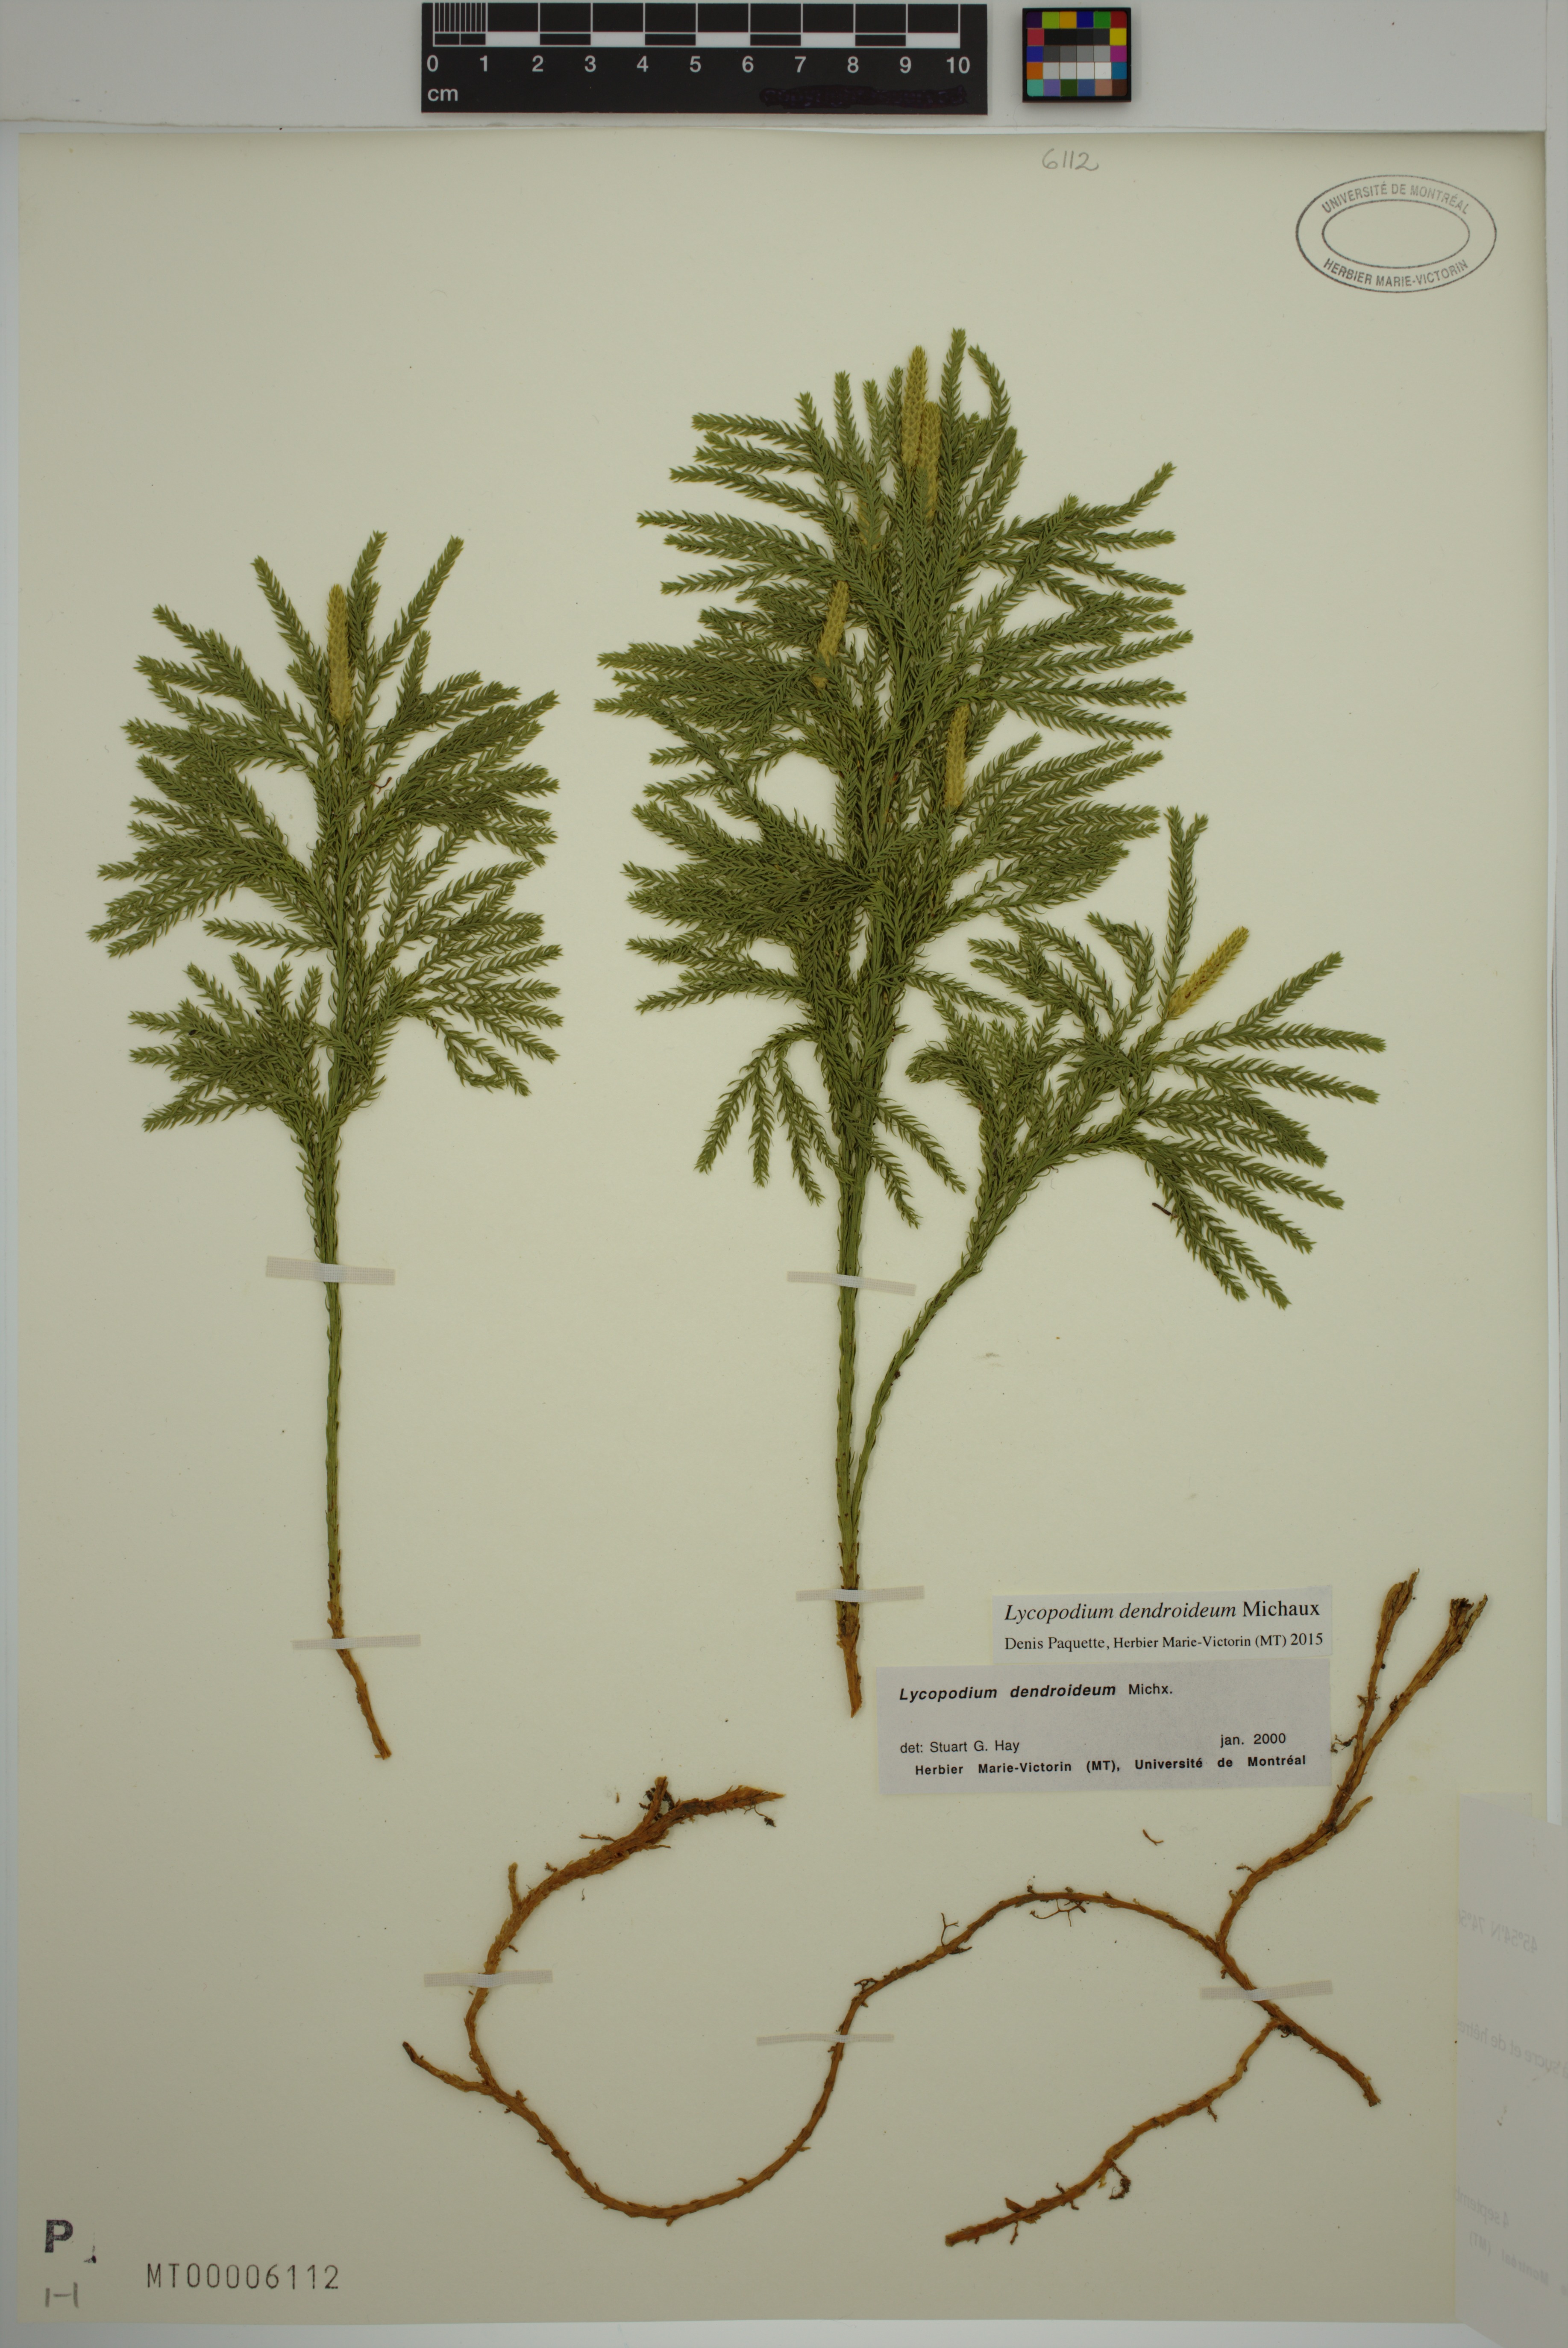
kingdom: Plantae
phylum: Tracheophyta
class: Lycopodiopsida
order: Lycopodiales
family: Lycopodiaceae
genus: Dendrolycopodium
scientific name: Dendrolycopodium dendroideum
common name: Northern tree-clubmoss
